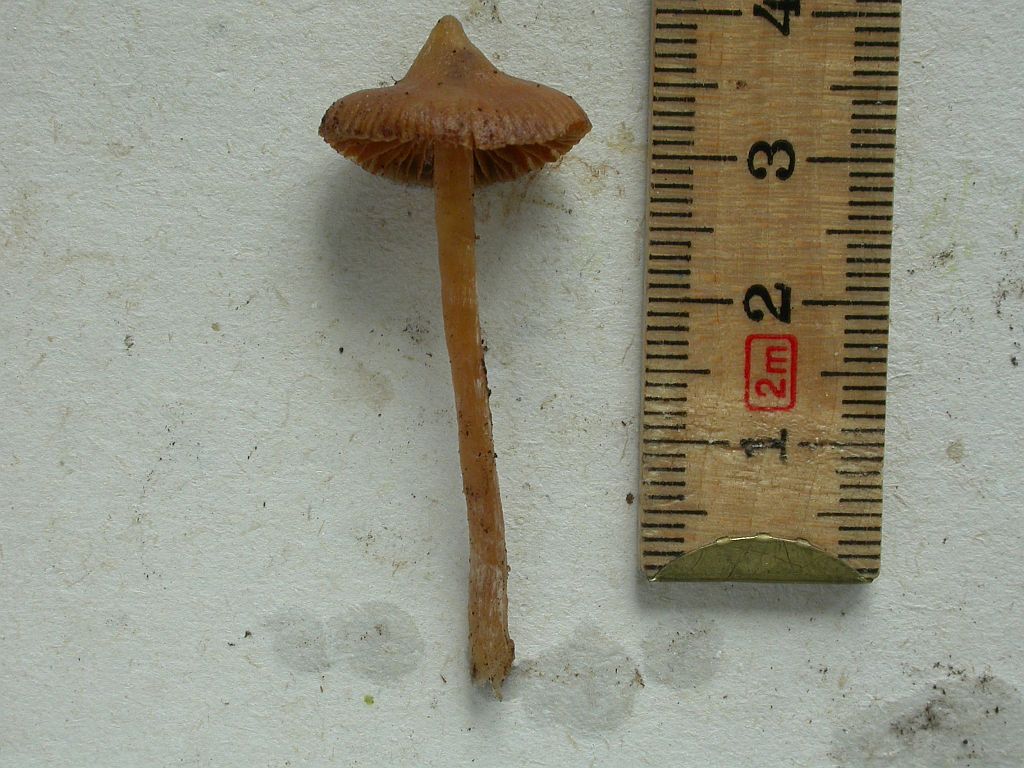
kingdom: Fungi
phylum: Basidiomycota
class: Agaricomycetes
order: Agaricales
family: Cortinariaceae
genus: Cortinarius
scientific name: Cortinarius acutus
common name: spids slørhat
